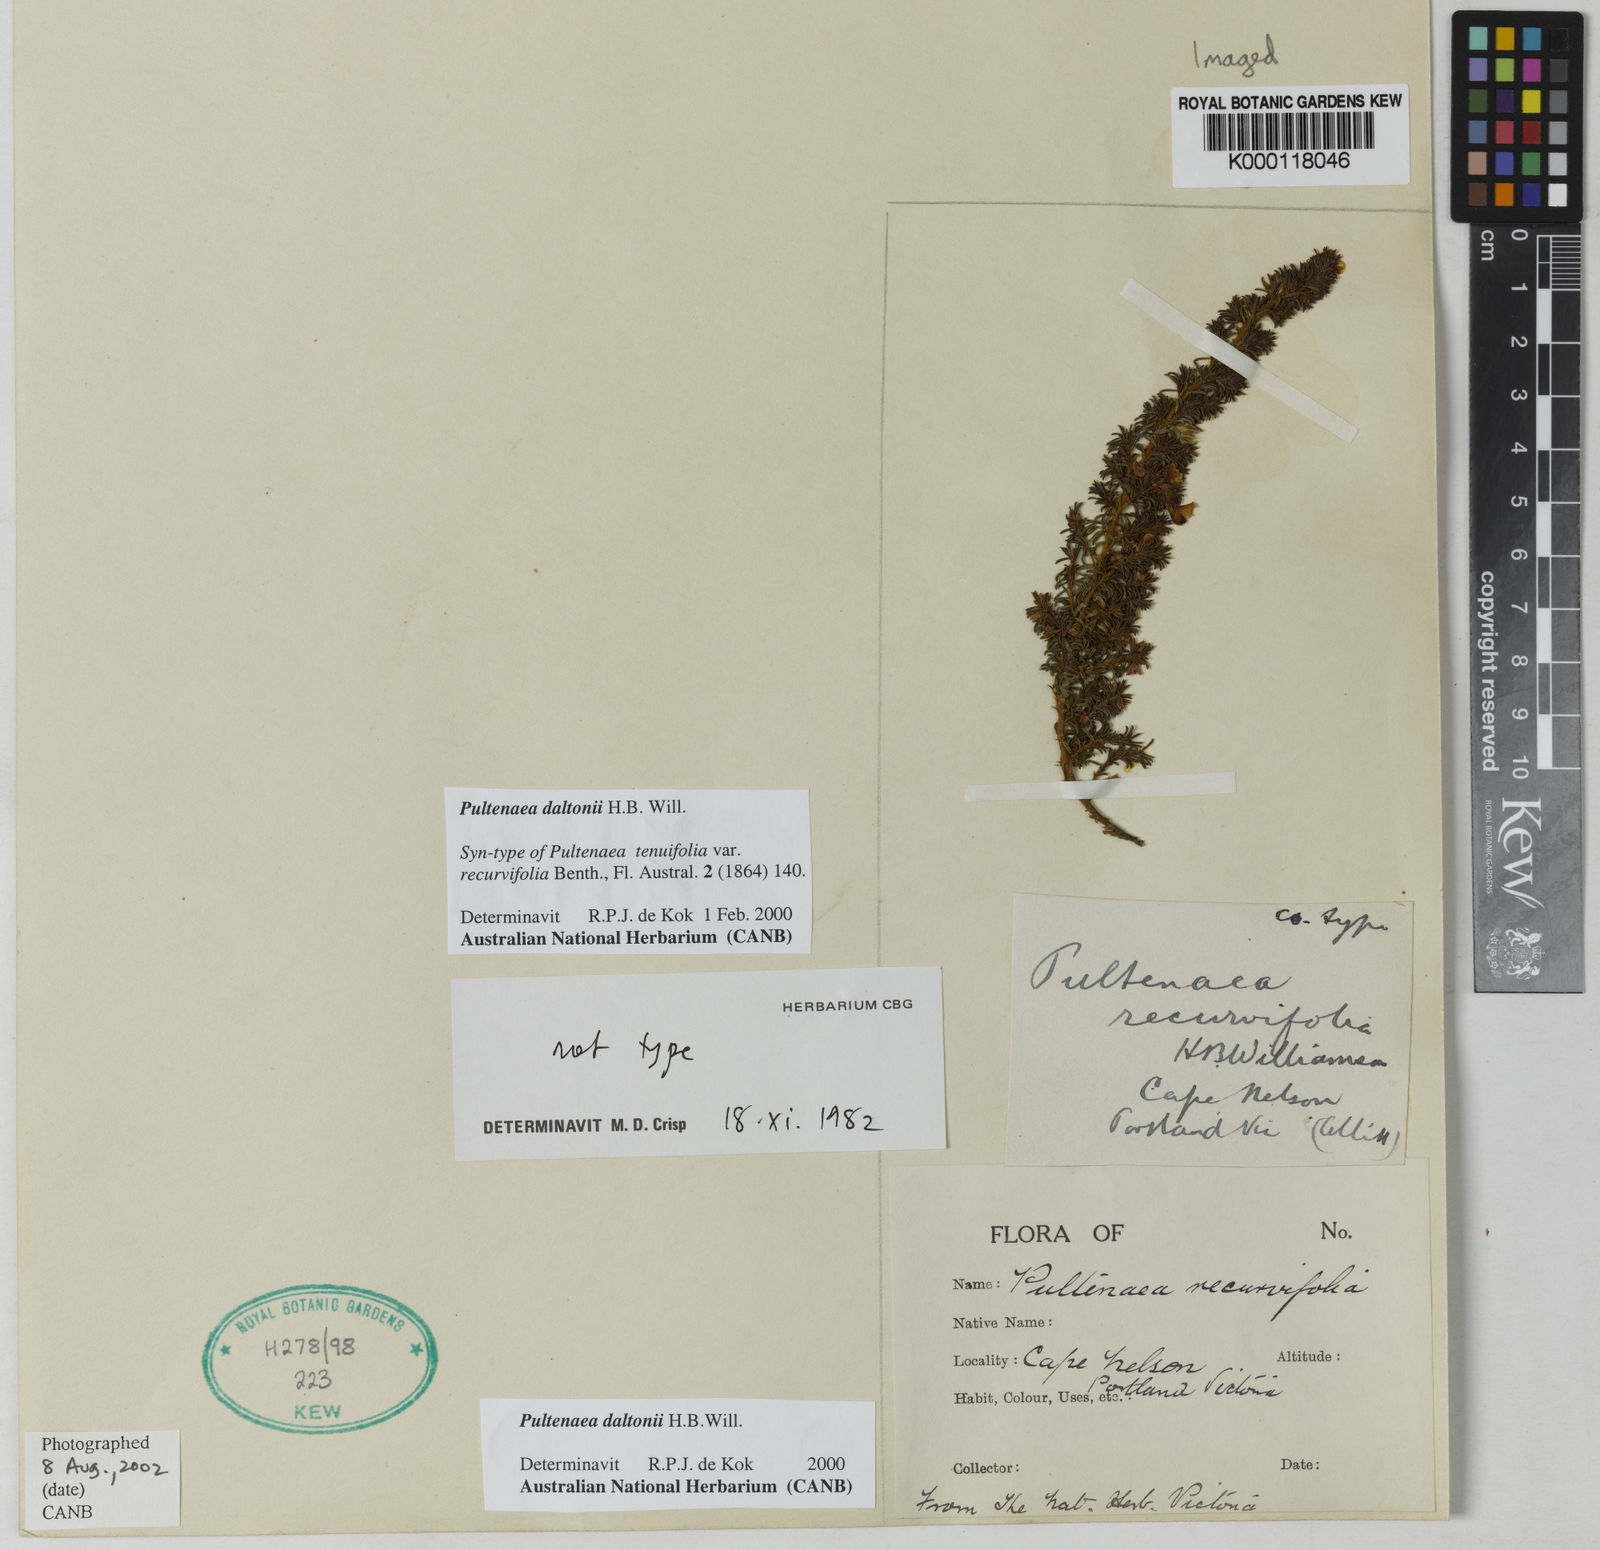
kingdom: Plantae
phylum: Tracheophyta
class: Magnoliopsida
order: Fabales
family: Fabaceae
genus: Pultenaea
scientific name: Pultenaea daltonii
